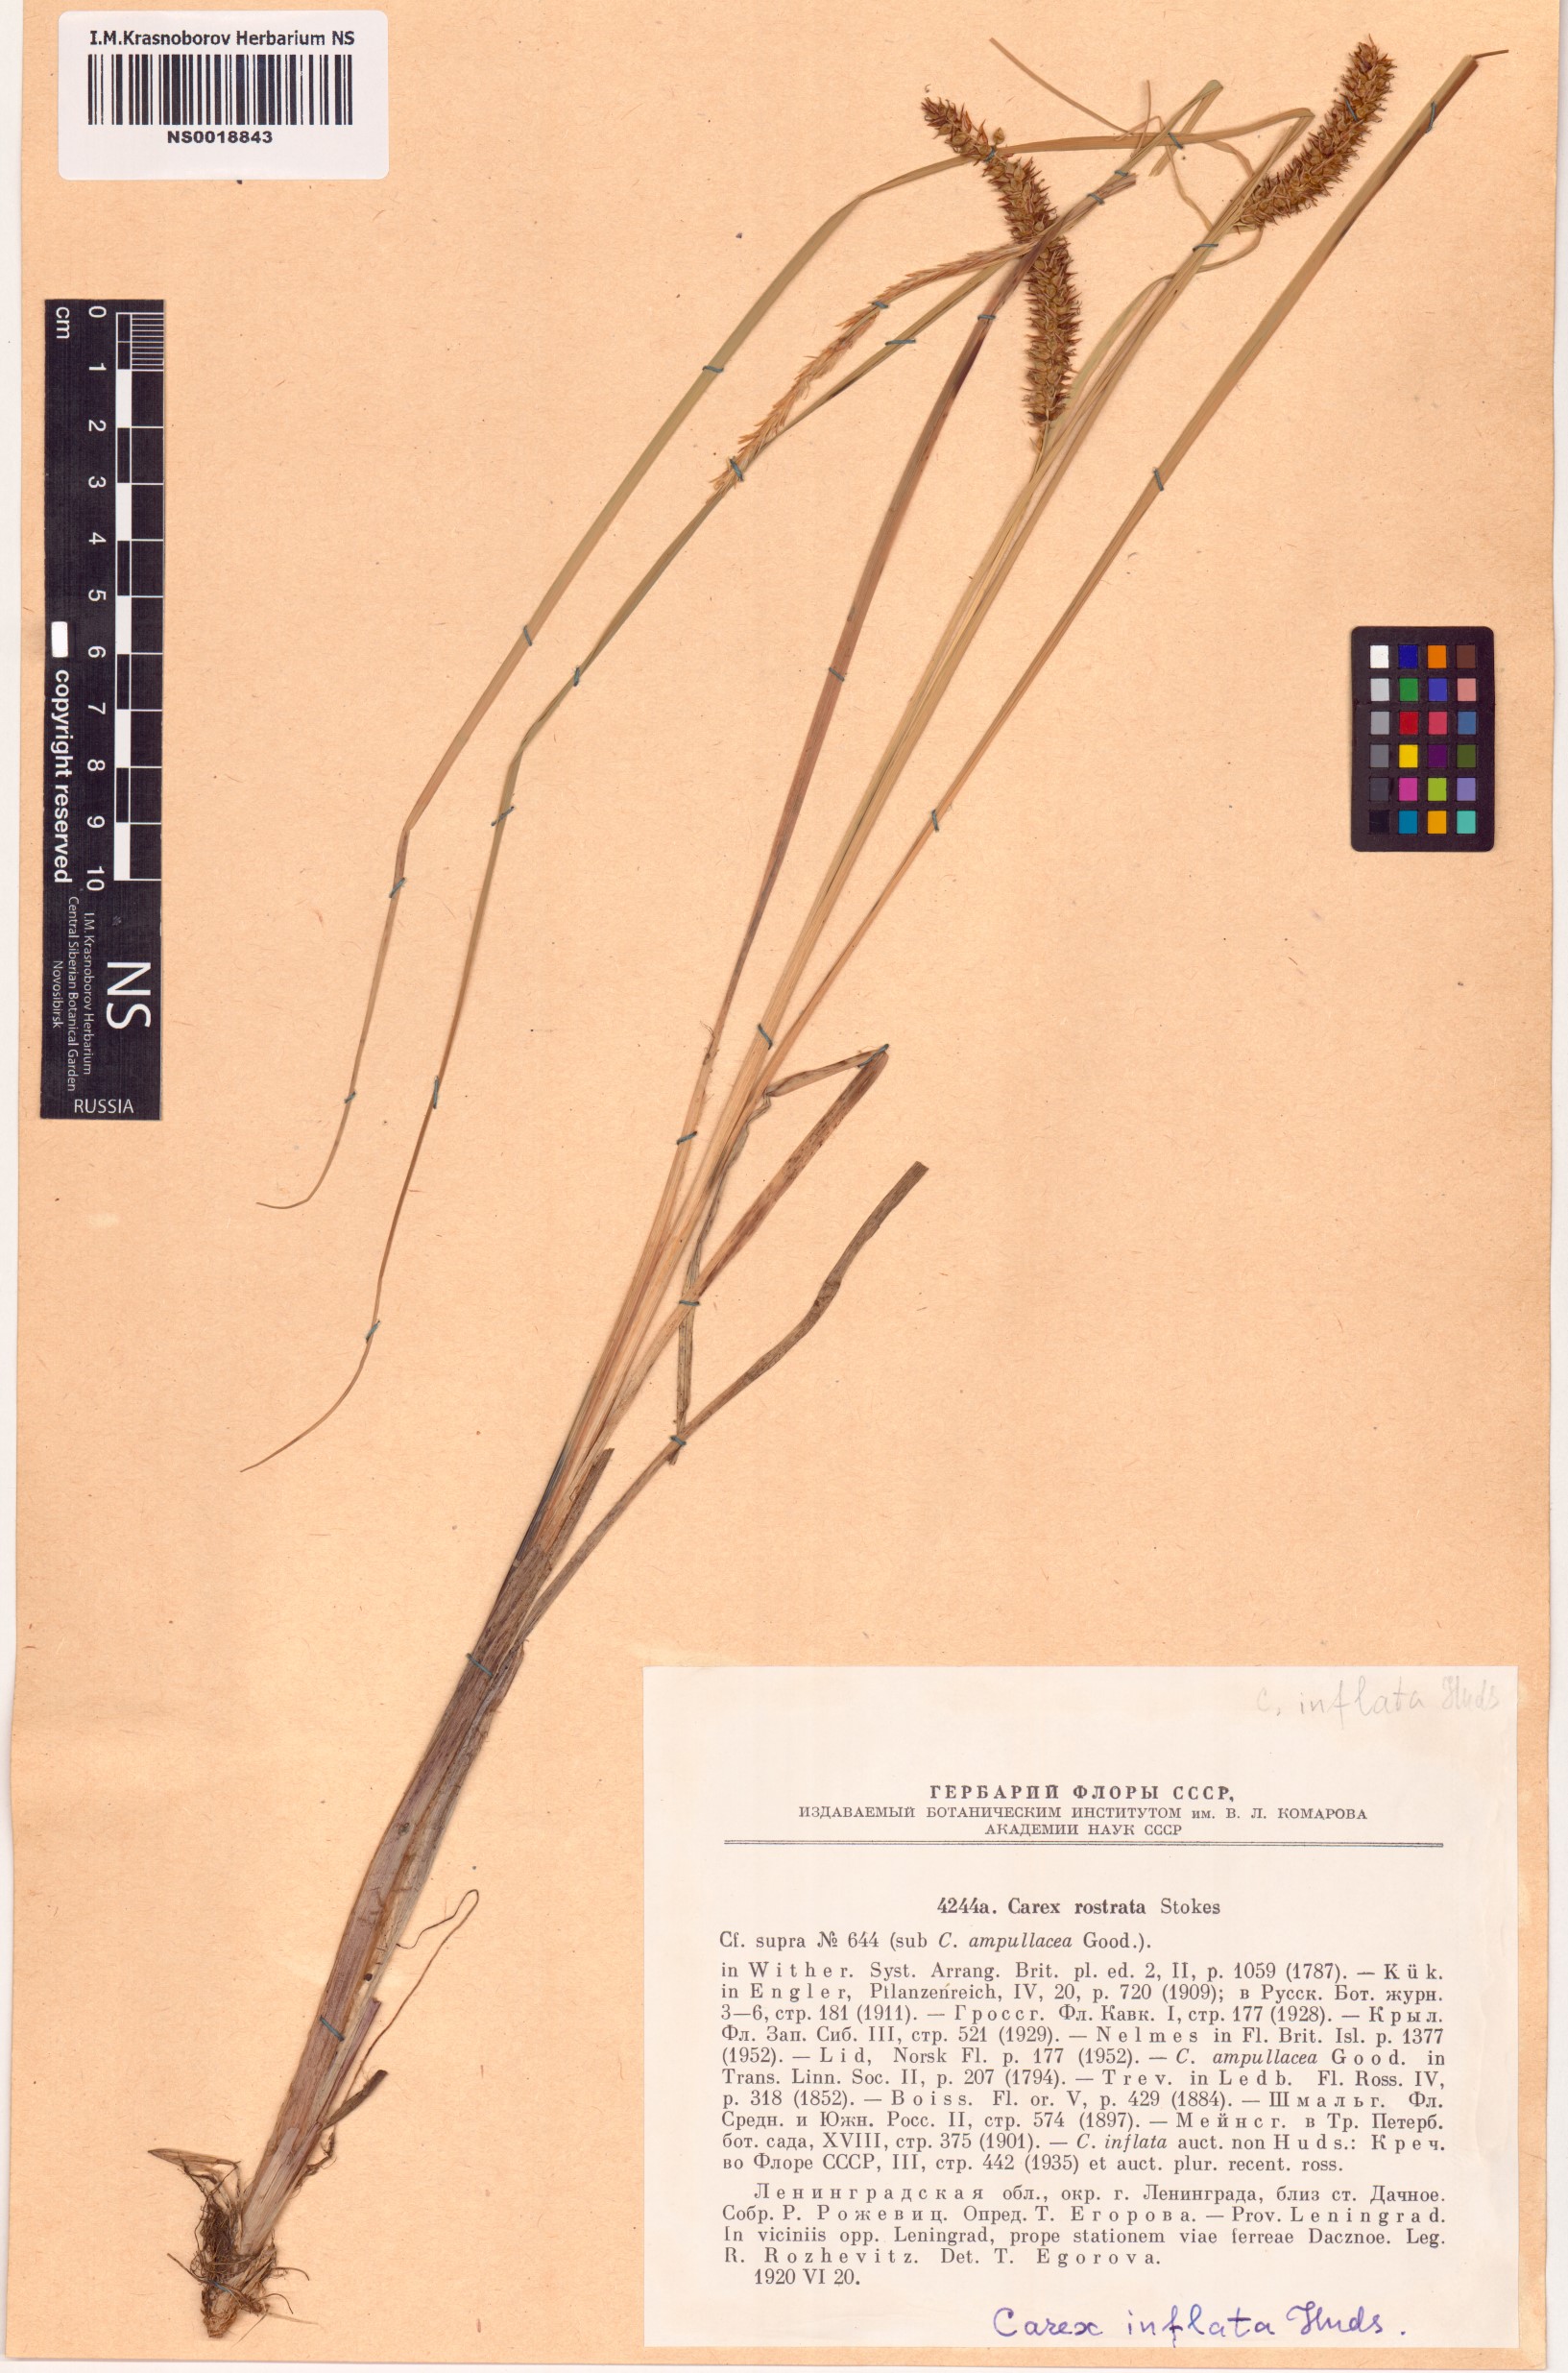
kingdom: Plantae
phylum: Tracheophyta
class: Liliopsida
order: Poales
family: Cyperaceae
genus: Carex
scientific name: Carex rostrata
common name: Bottle sedge
